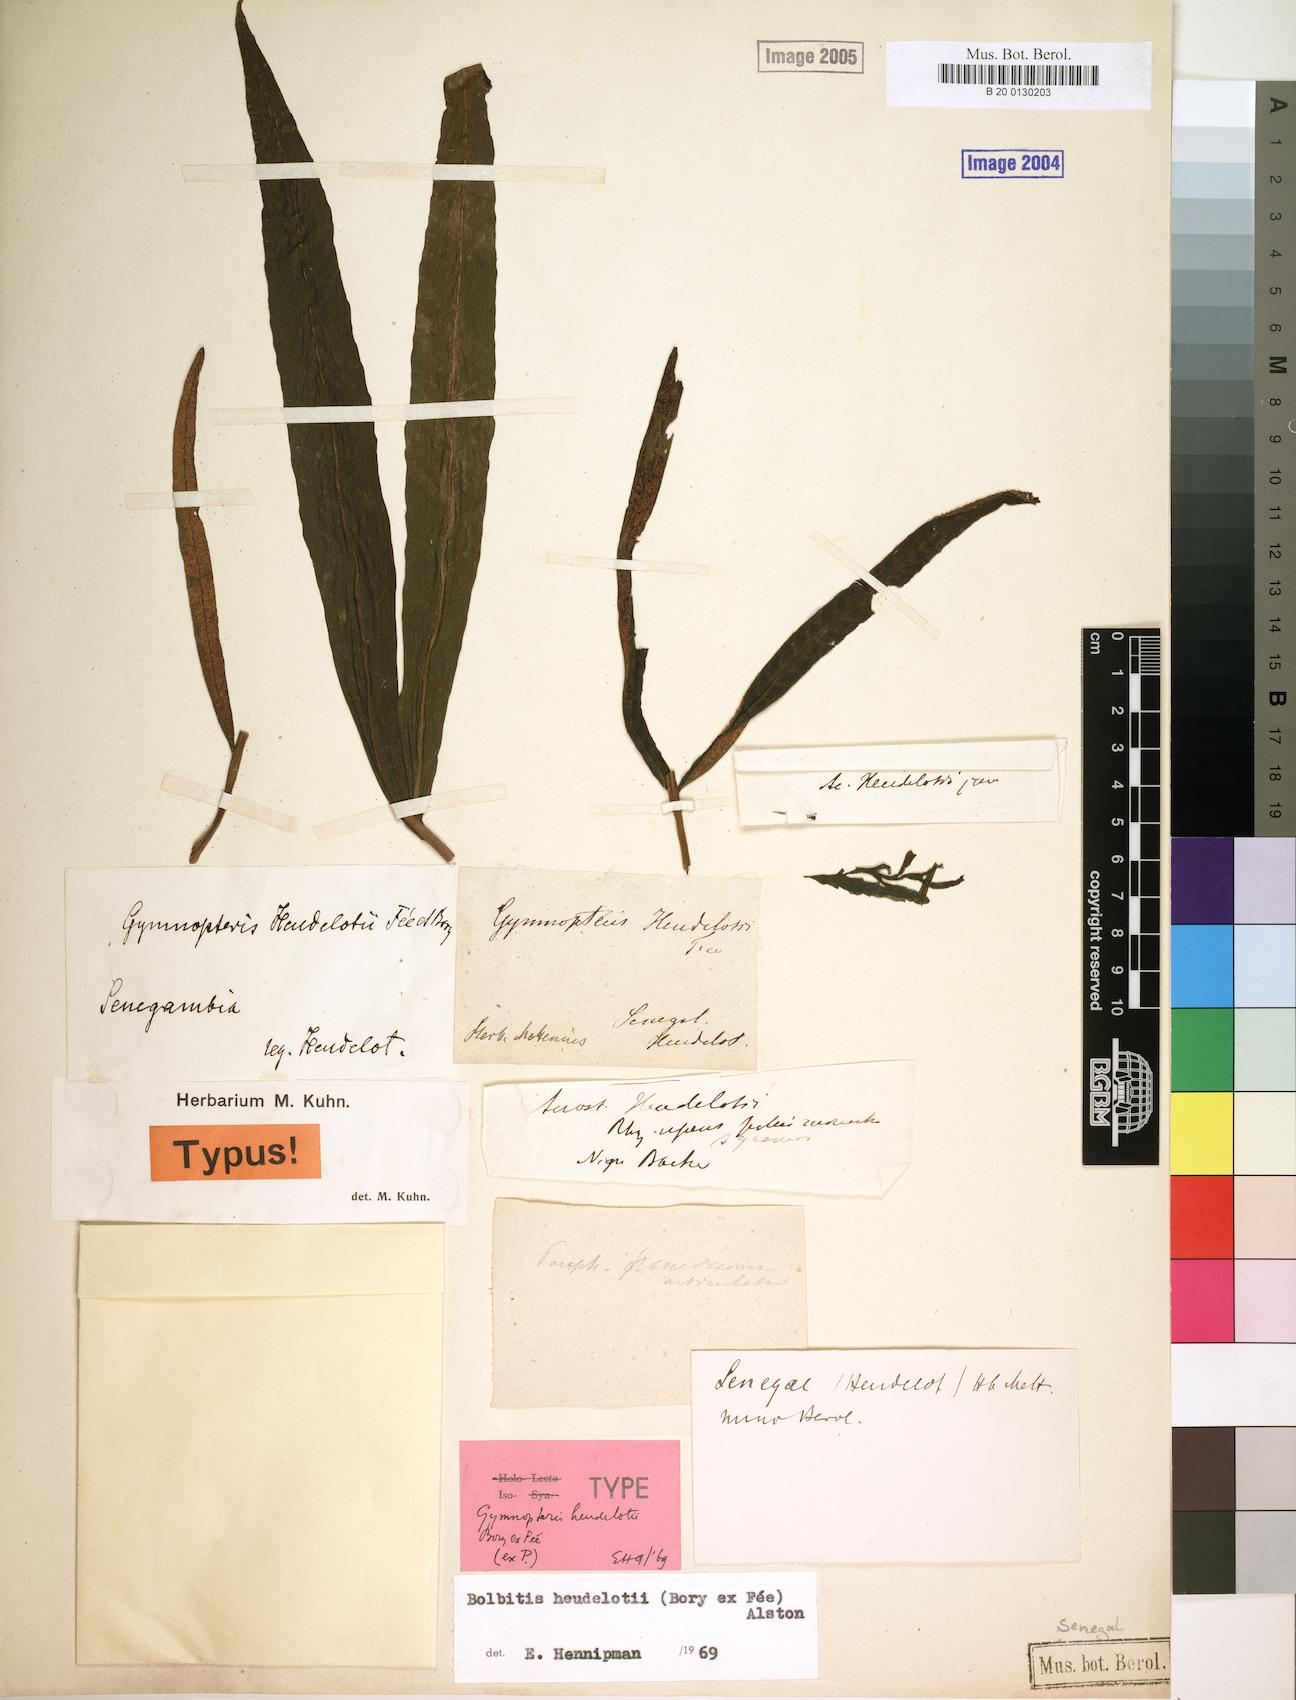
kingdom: Plantae
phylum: Tracheophyta
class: Polypodiopsida
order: Polypodiales
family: Dryopteridaceae
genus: Bolbitis
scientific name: Bolbitis heudelotii
